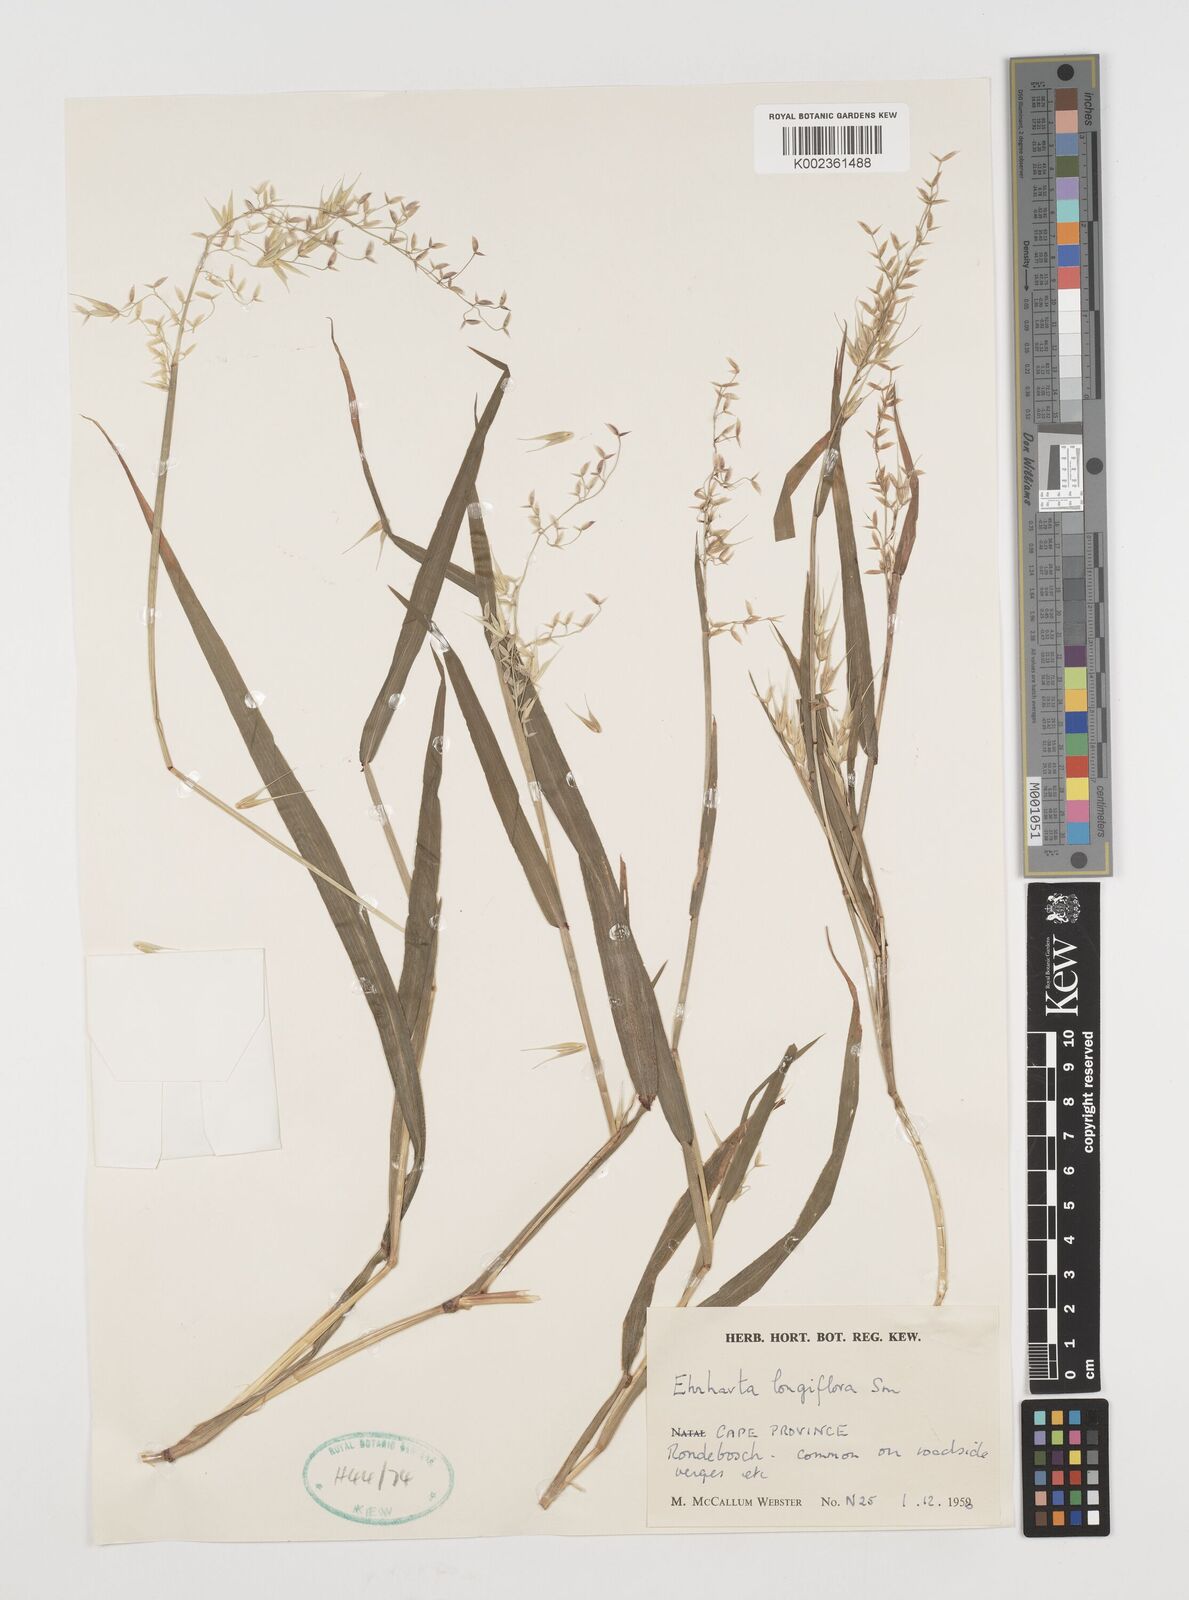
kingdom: Plantae
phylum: Tracheophyta
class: Liliopsida
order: Poales
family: Poaceae
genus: Ehrharta
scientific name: Ehrharta longiflora
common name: Longflowered veldtgrass
